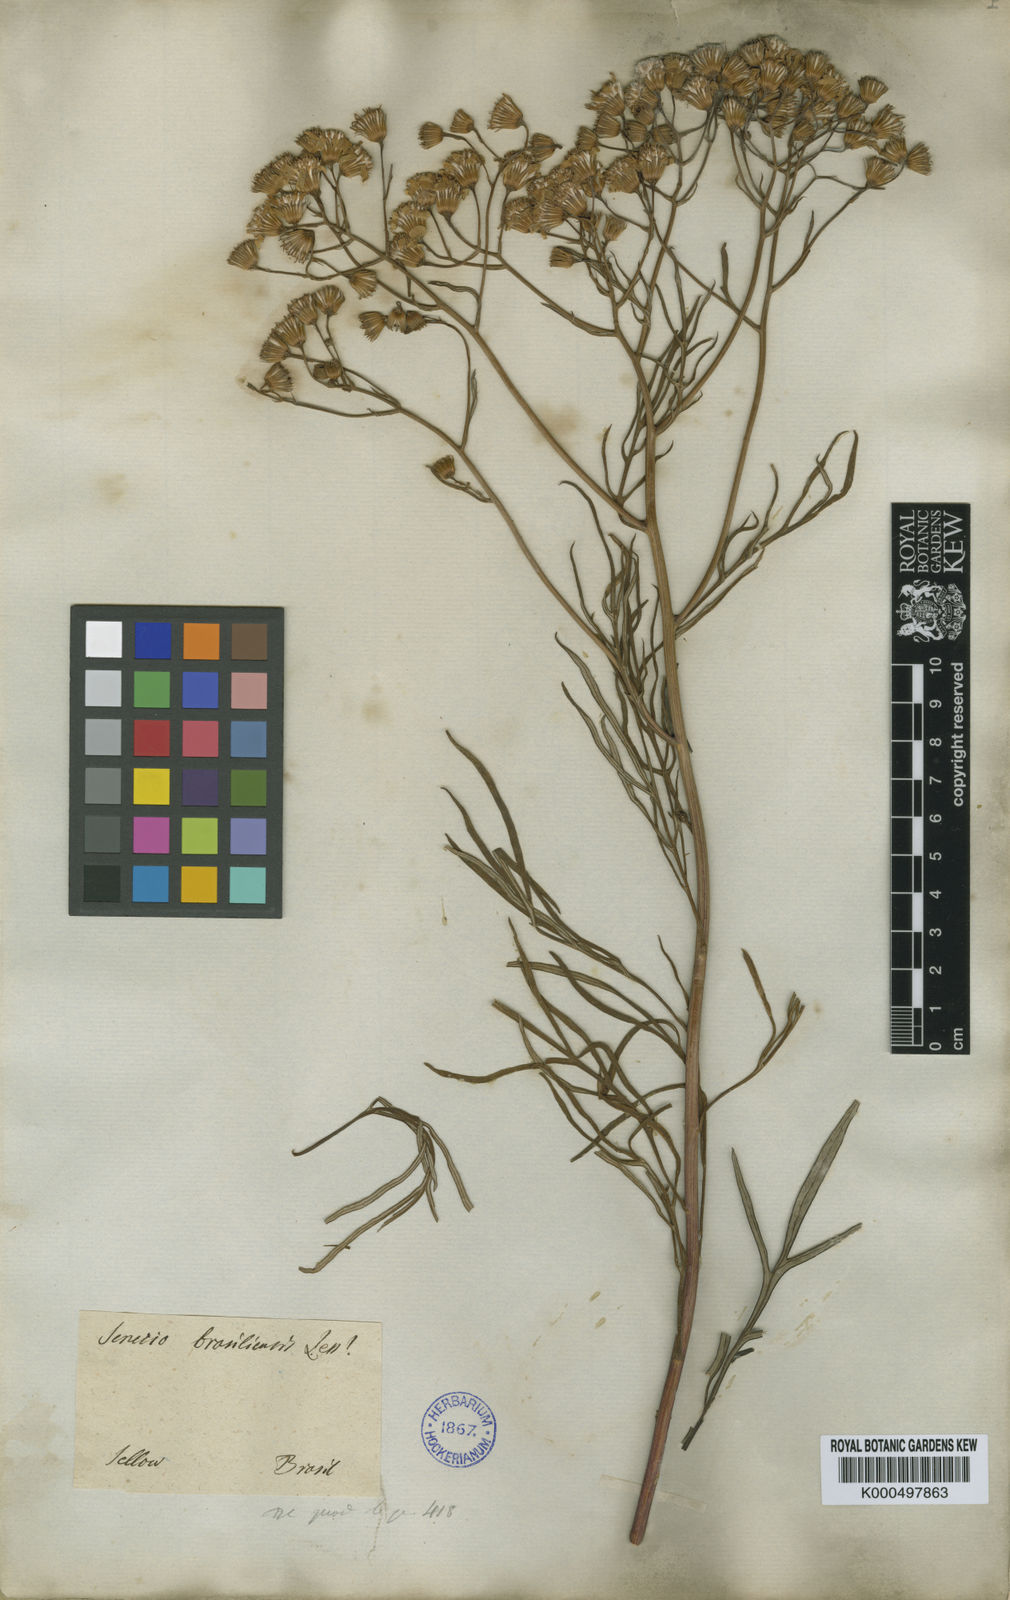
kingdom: Plantae
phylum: Tracheophyta
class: Magnoliopsida
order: Asterales
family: Asteraceae
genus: Senecio
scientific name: Senecio brasiliensis
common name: Hemp-leaf ragwort
